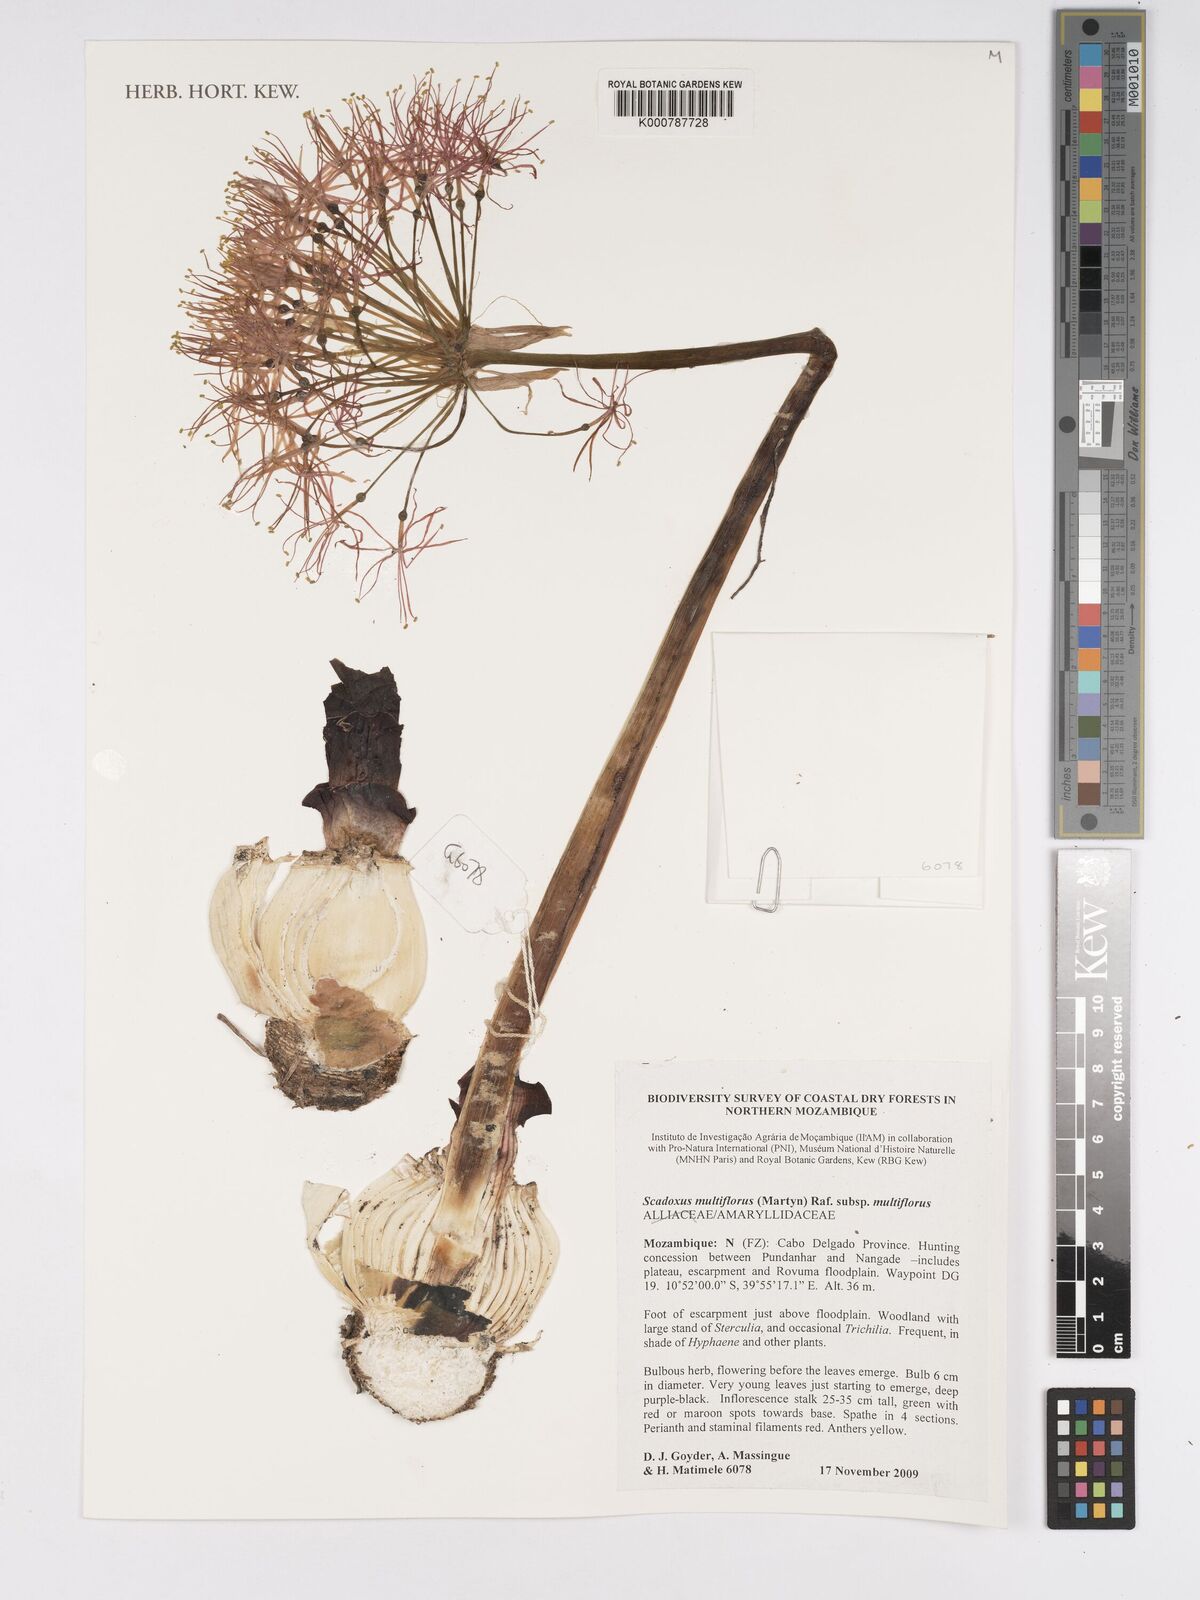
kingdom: Plantae
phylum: Tracheophyta
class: Liliopsida
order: Asparagales
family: Amaryllidaceae
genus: Scadoxus
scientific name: Scadoxus multiflorus
